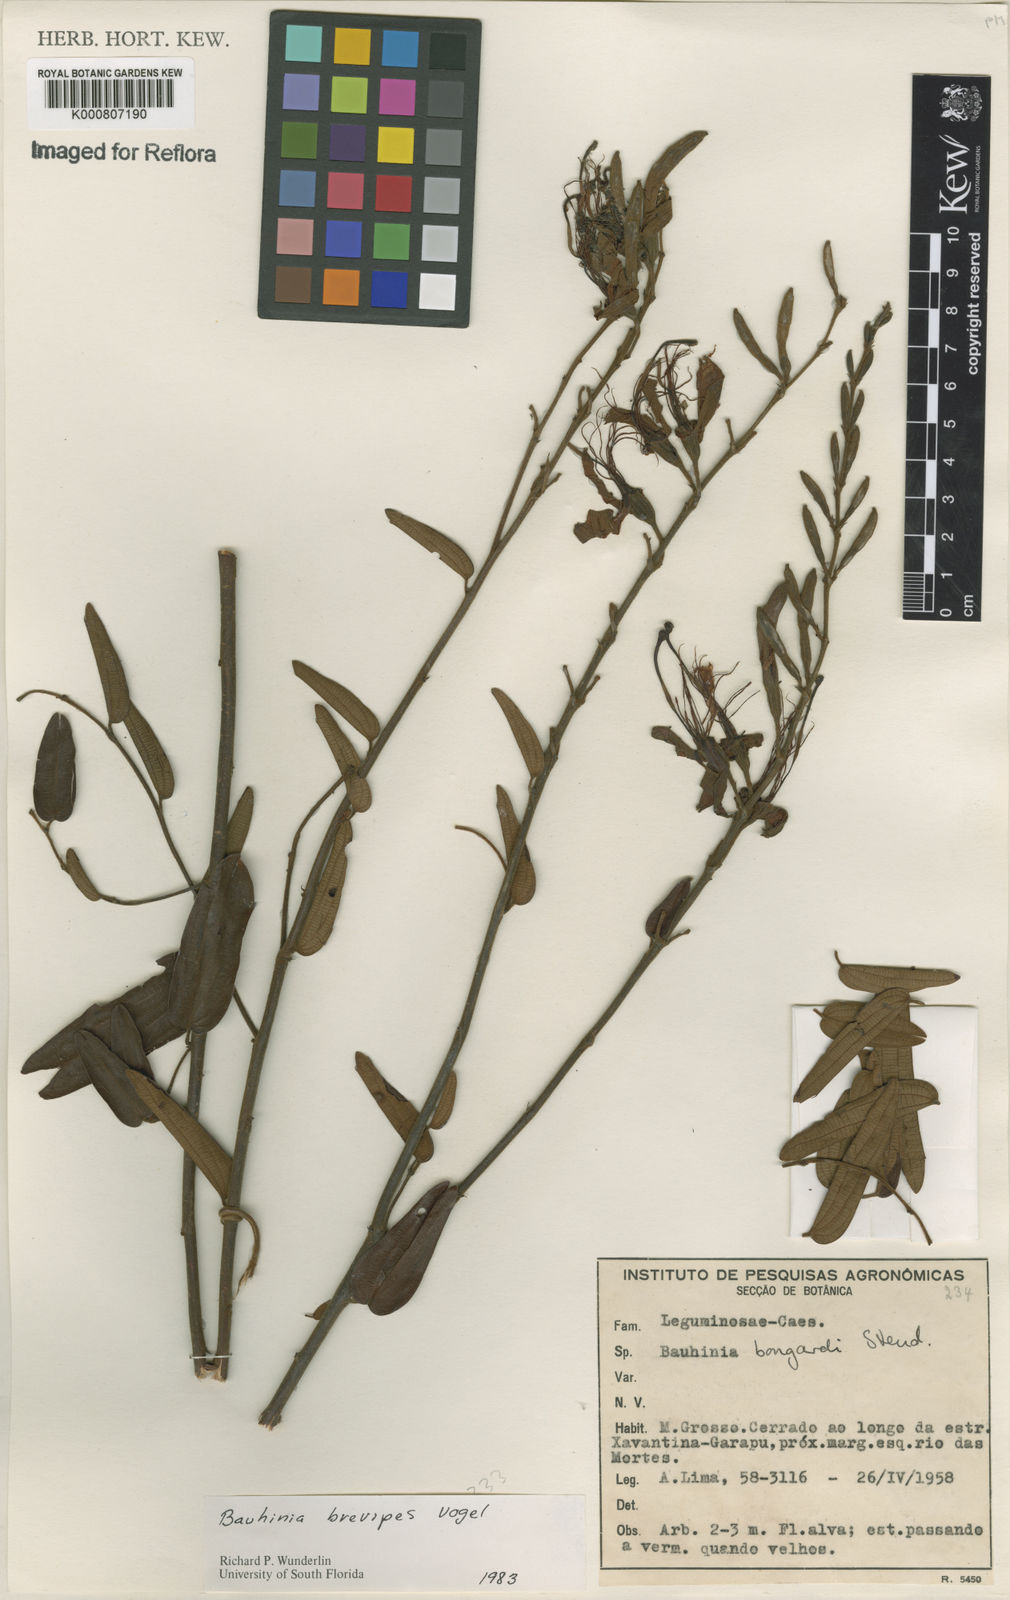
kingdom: Plantae
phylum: Tracheophyta
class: Magnoliopsida
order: Fabales
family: Fabaceae
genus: Bauhinia
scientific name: Bauhinia brevipes
